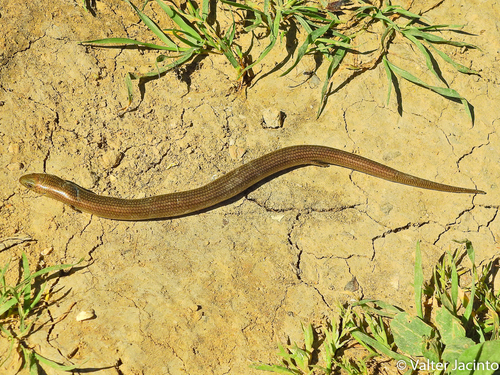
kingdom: Animalia
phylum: Chordata
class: Squamata
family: Scincidae
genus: Chalcides
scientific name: Chalcides striatus
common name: Western (or iberian) three-toed skink
